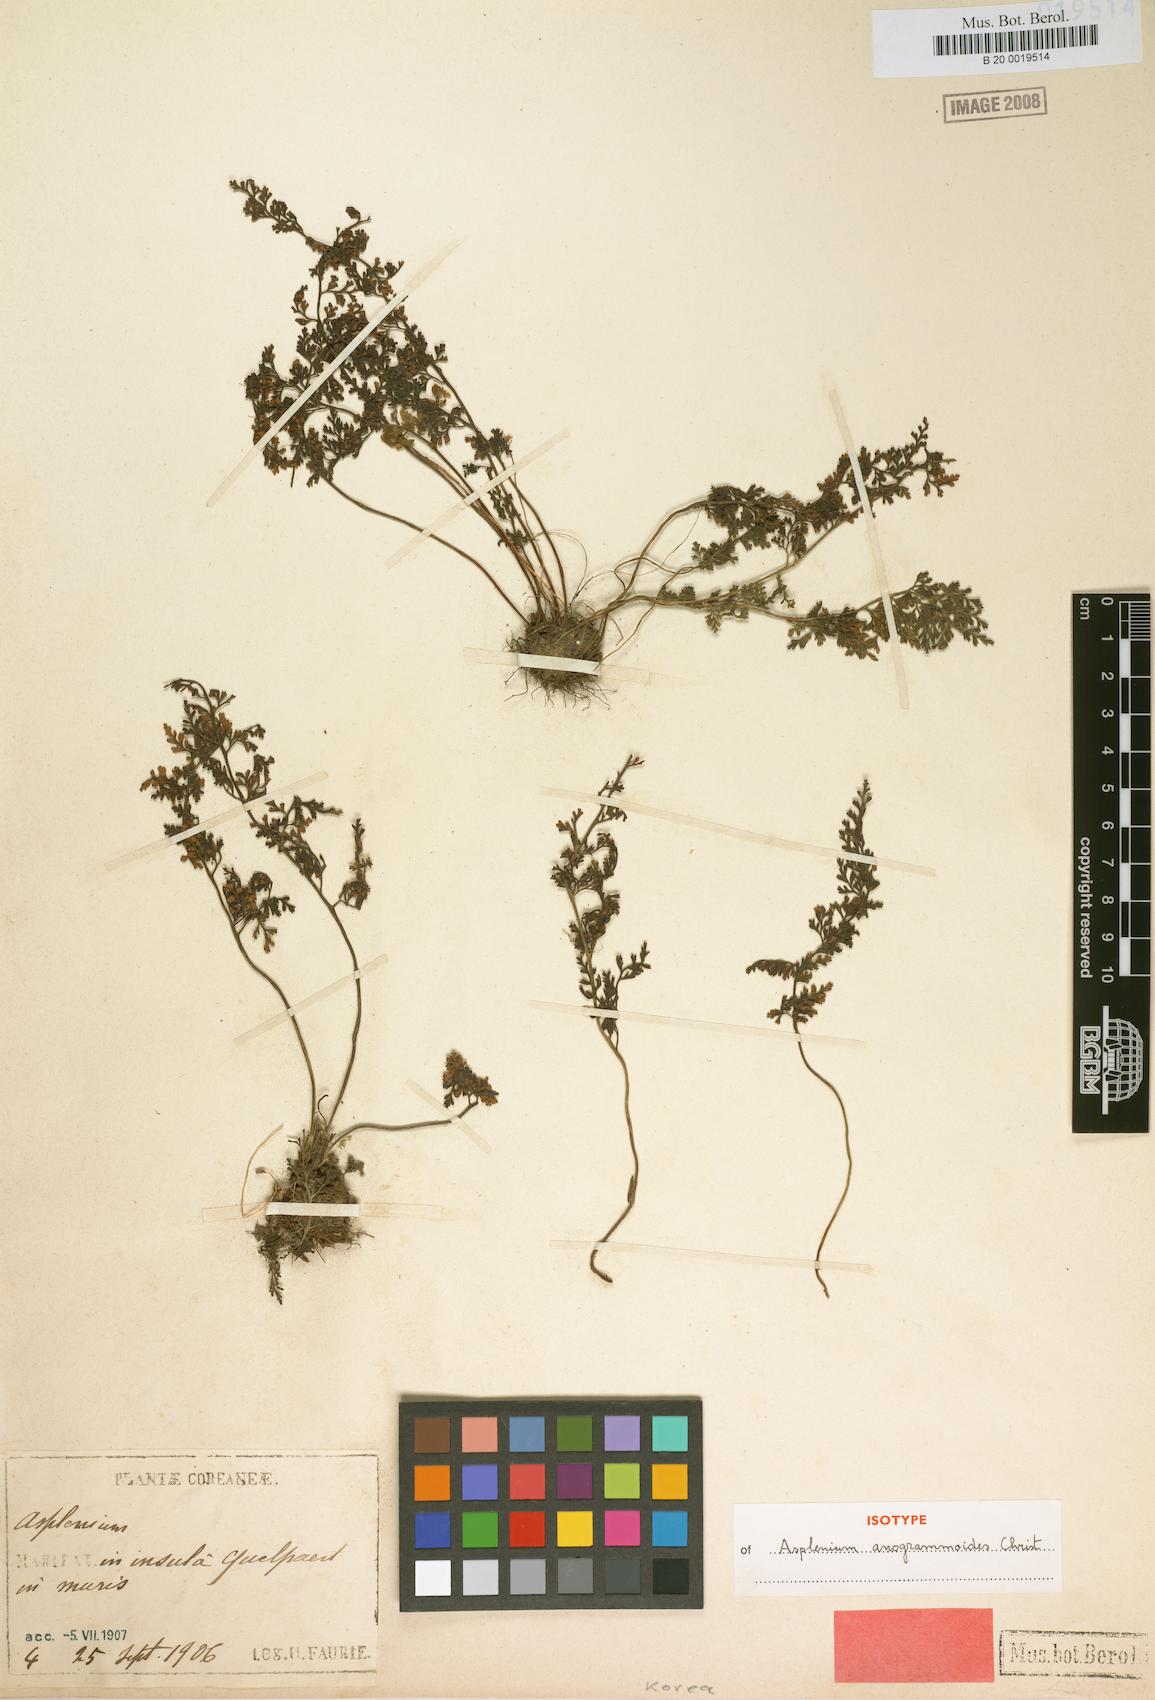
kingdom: Plantae
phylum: Tracheophyta
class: Polypodiopsida
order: Polypodiales
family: Aspleniaceae
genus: Asplenium
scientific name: Asplenium anogrammoides
